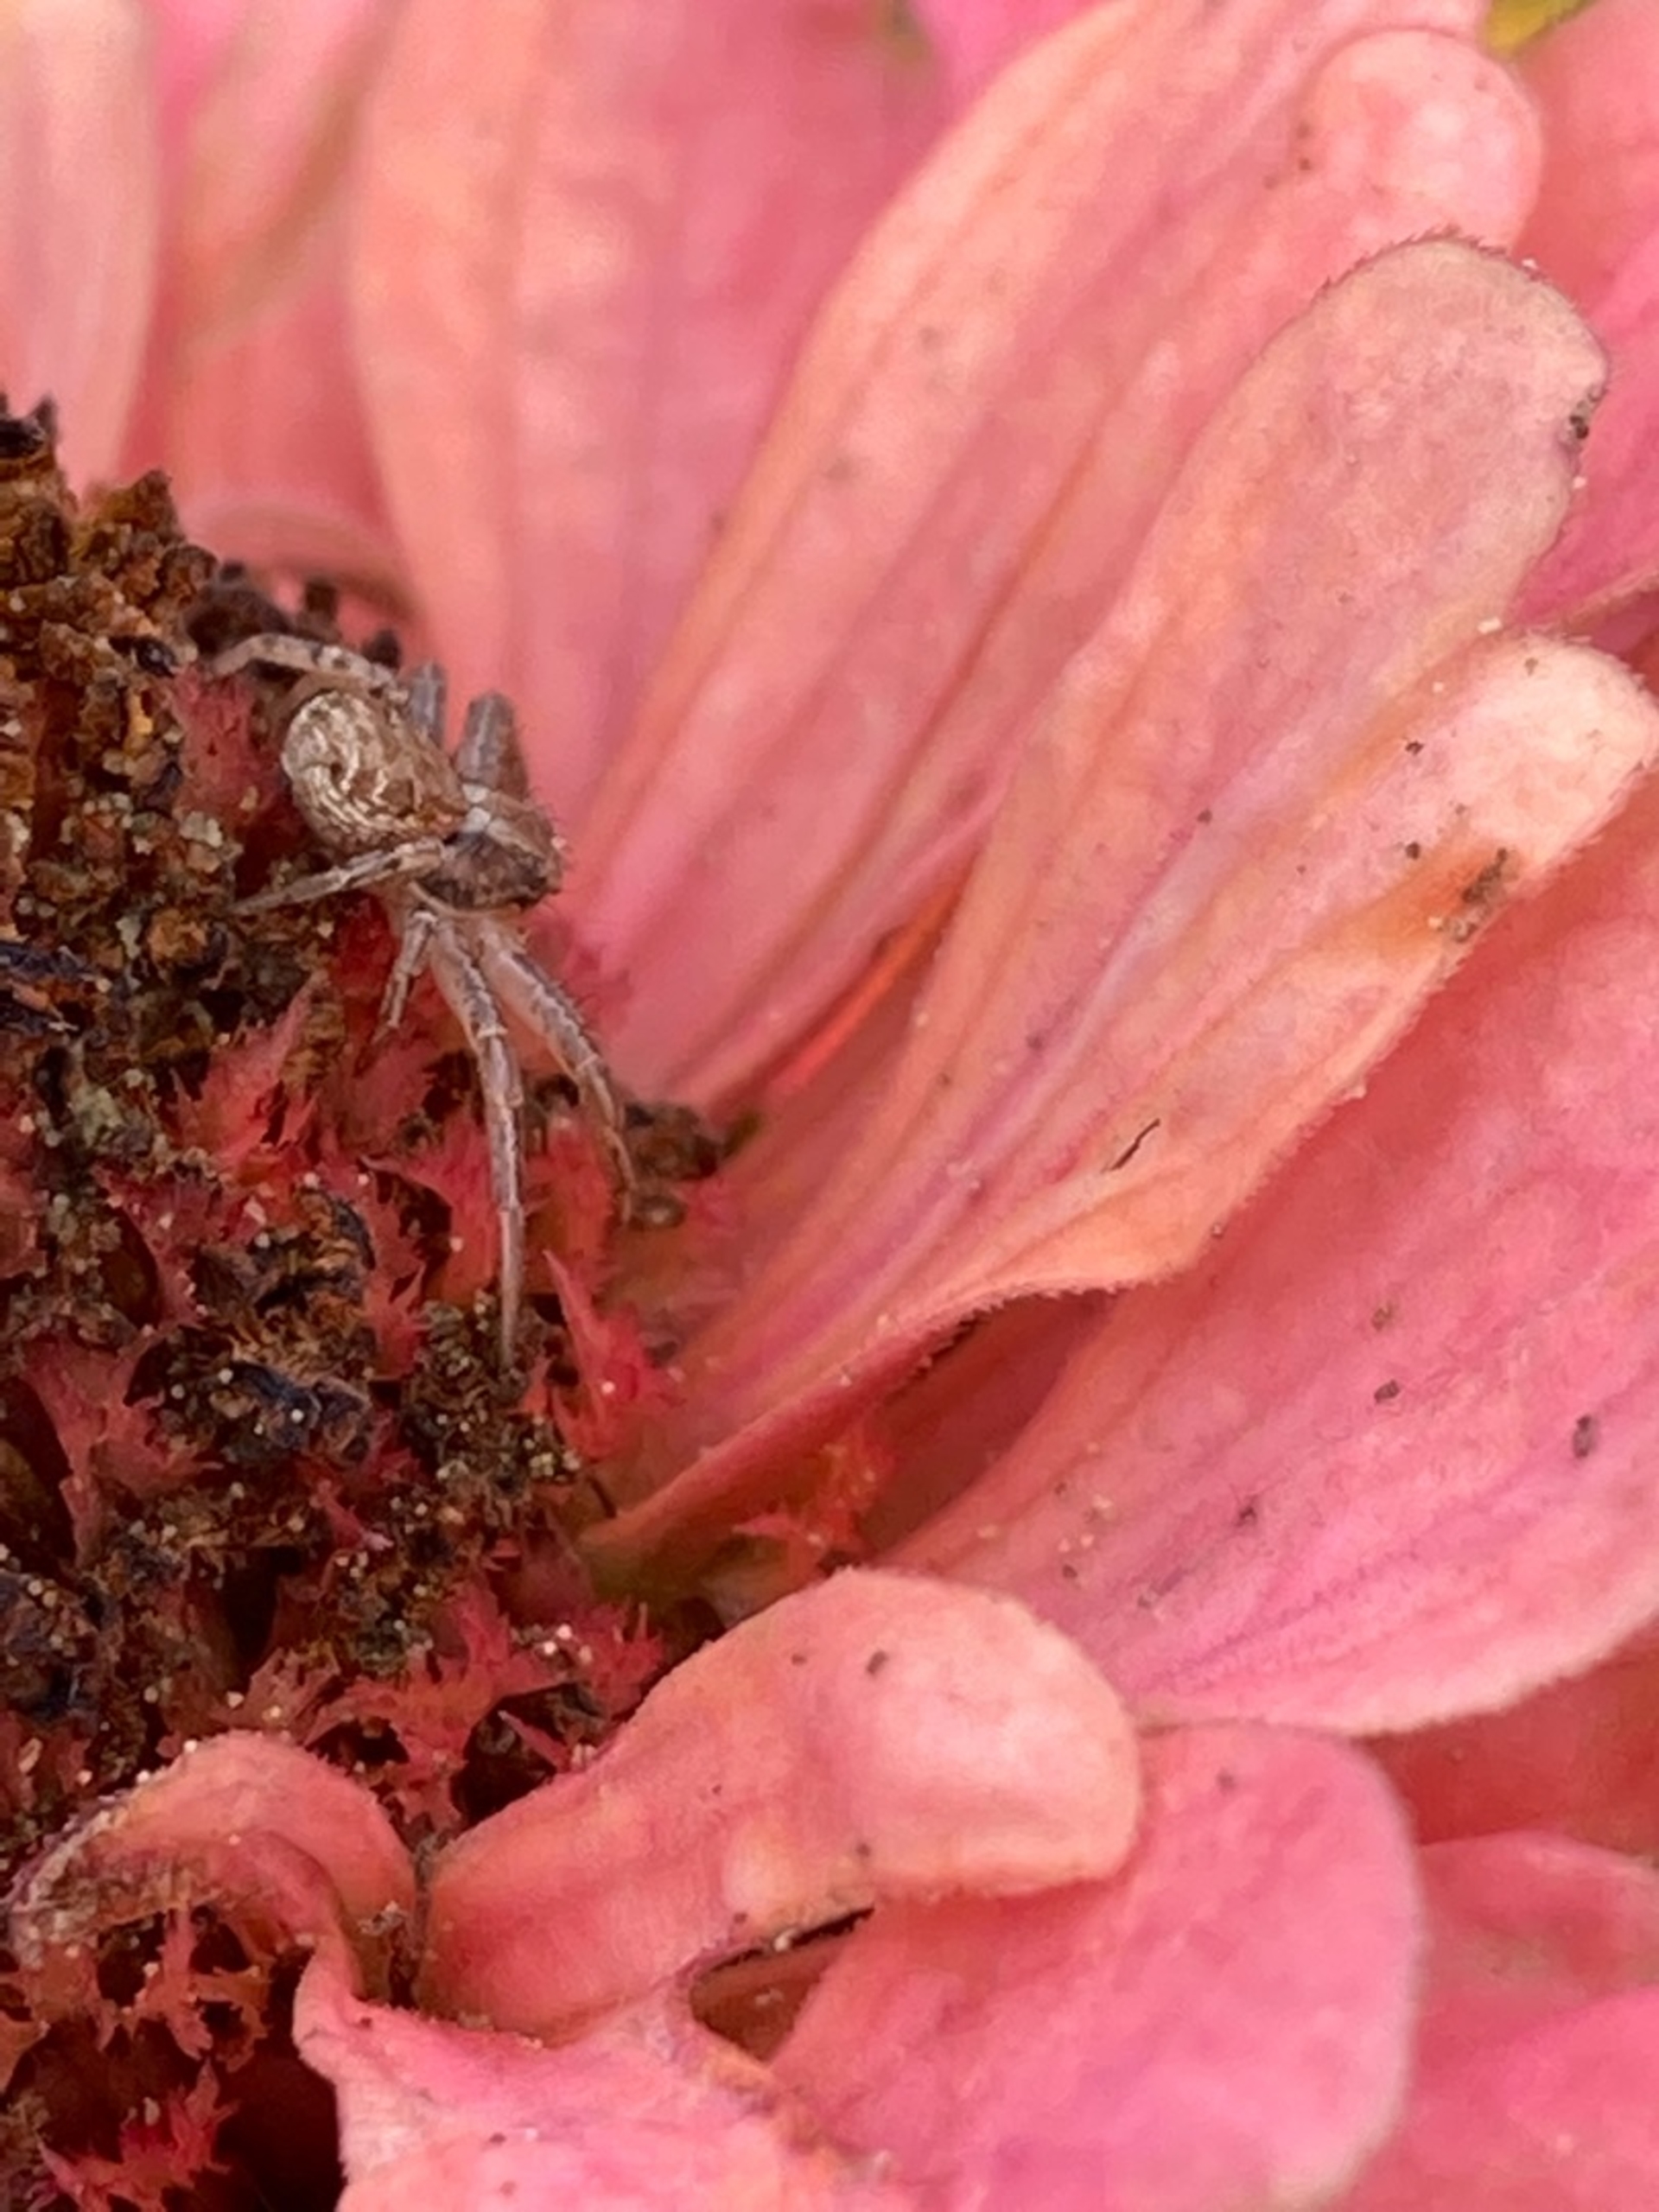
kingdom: Animalia
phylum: Arthropoda
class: Arachnida
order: Araneae
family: Thomisidae
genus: Xysticus
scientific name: Xysticus
